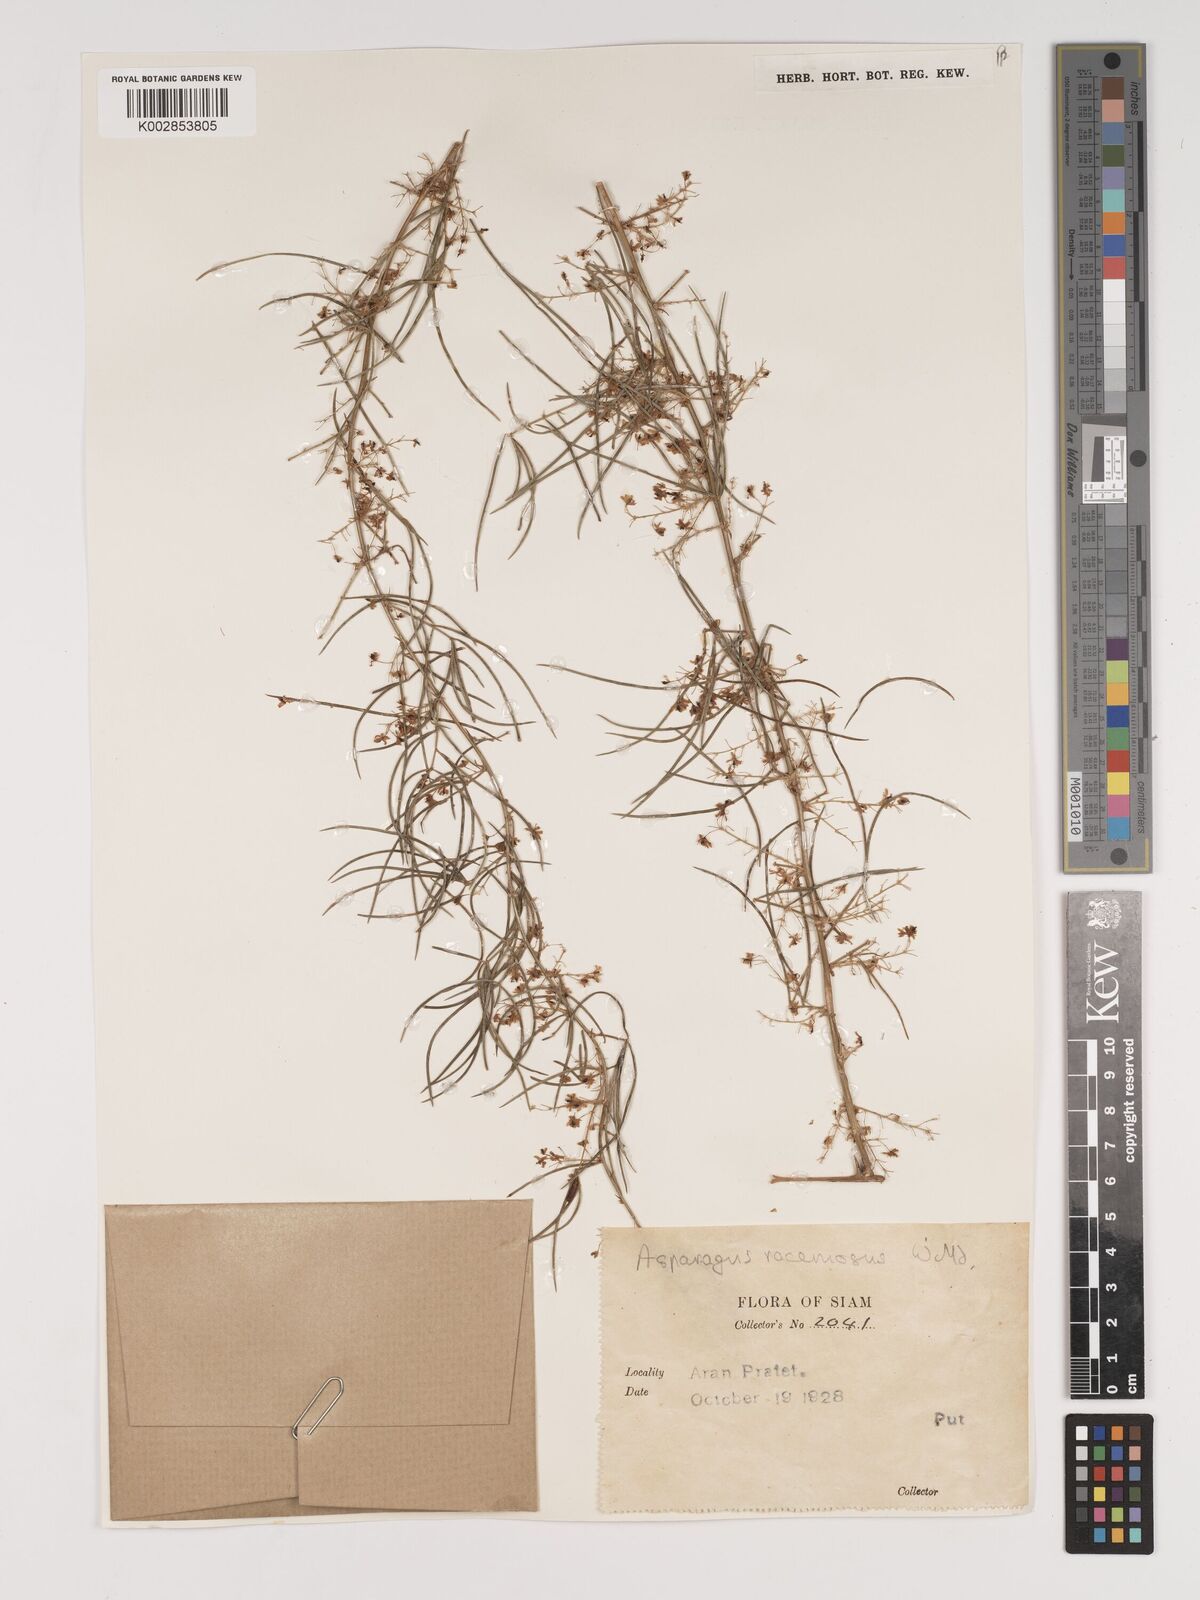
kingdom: Plantae
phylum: Tracheophyta
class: Liliopsida
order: Asparagales
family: Asparagaceae
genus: Asparagus
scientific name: Asparagus racemosus
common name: Asparagus-fern
